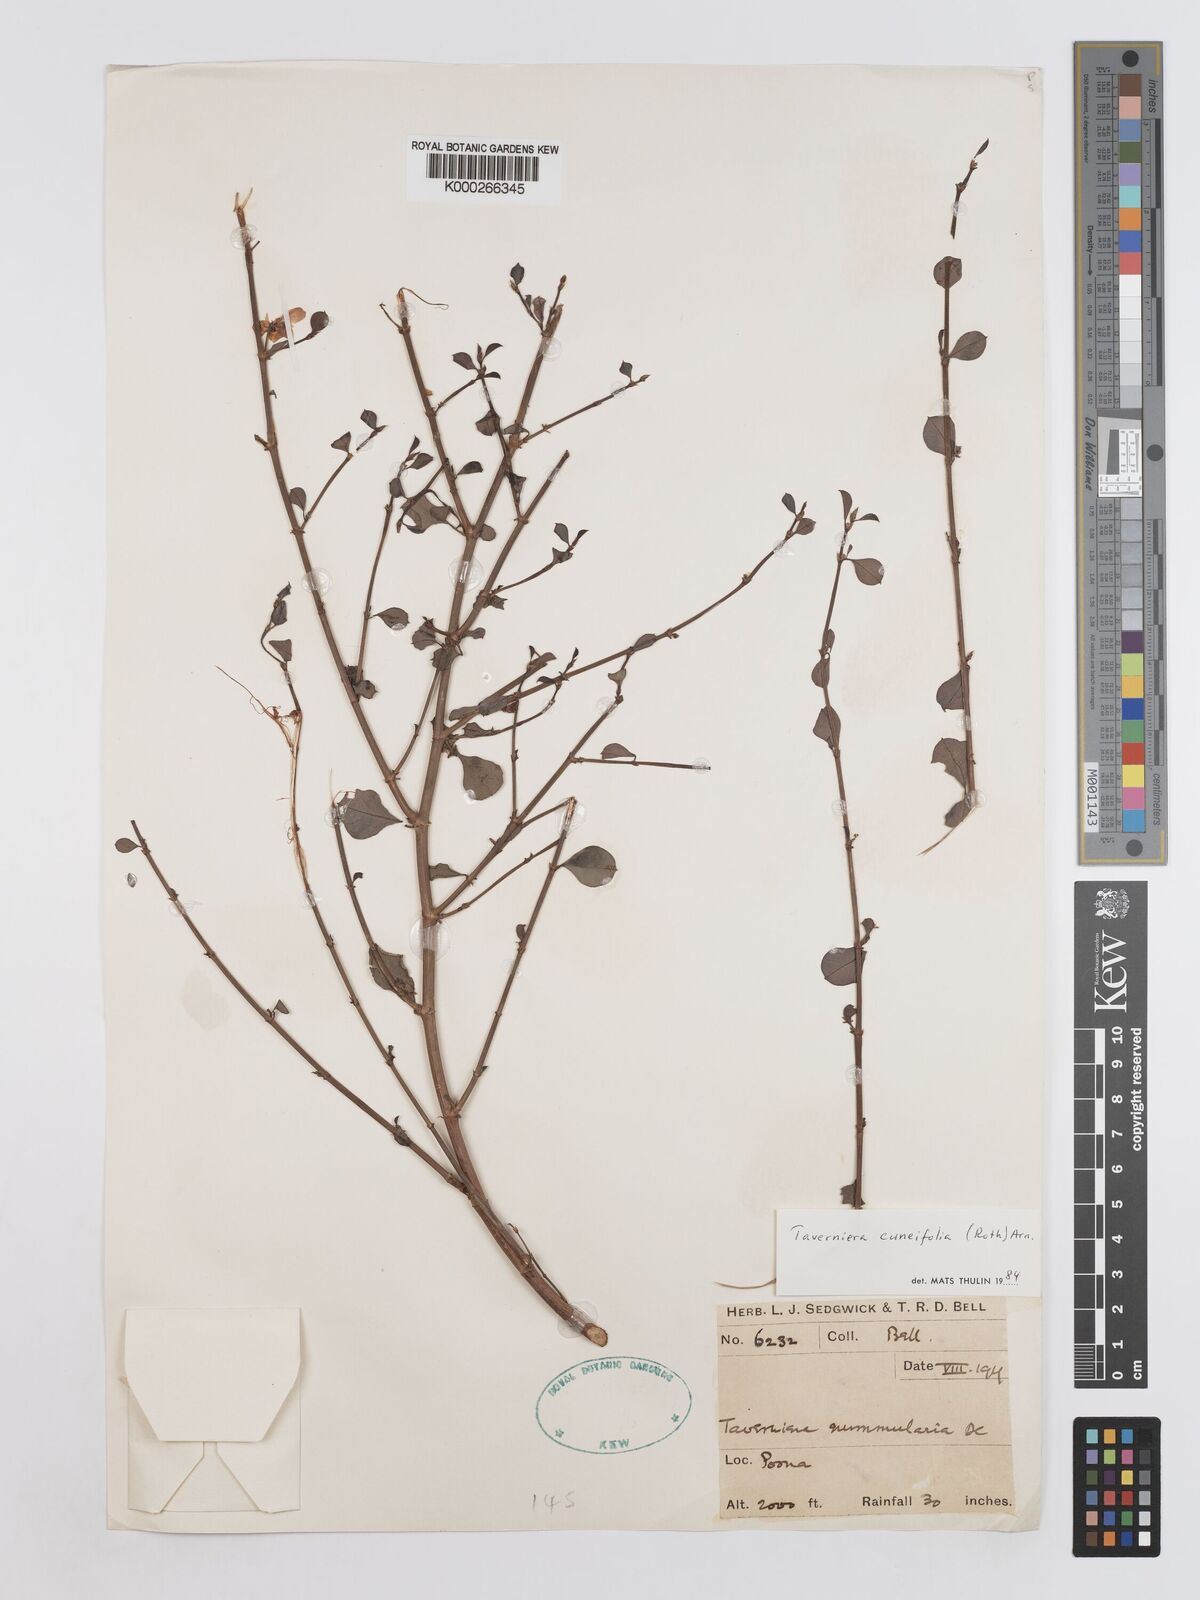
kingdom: Plantae
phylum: Tracheophyta
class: Magnoliopsida
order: Fabales
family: Fabaceae
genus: Taverniera
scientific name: Taverniera cuneifolia
